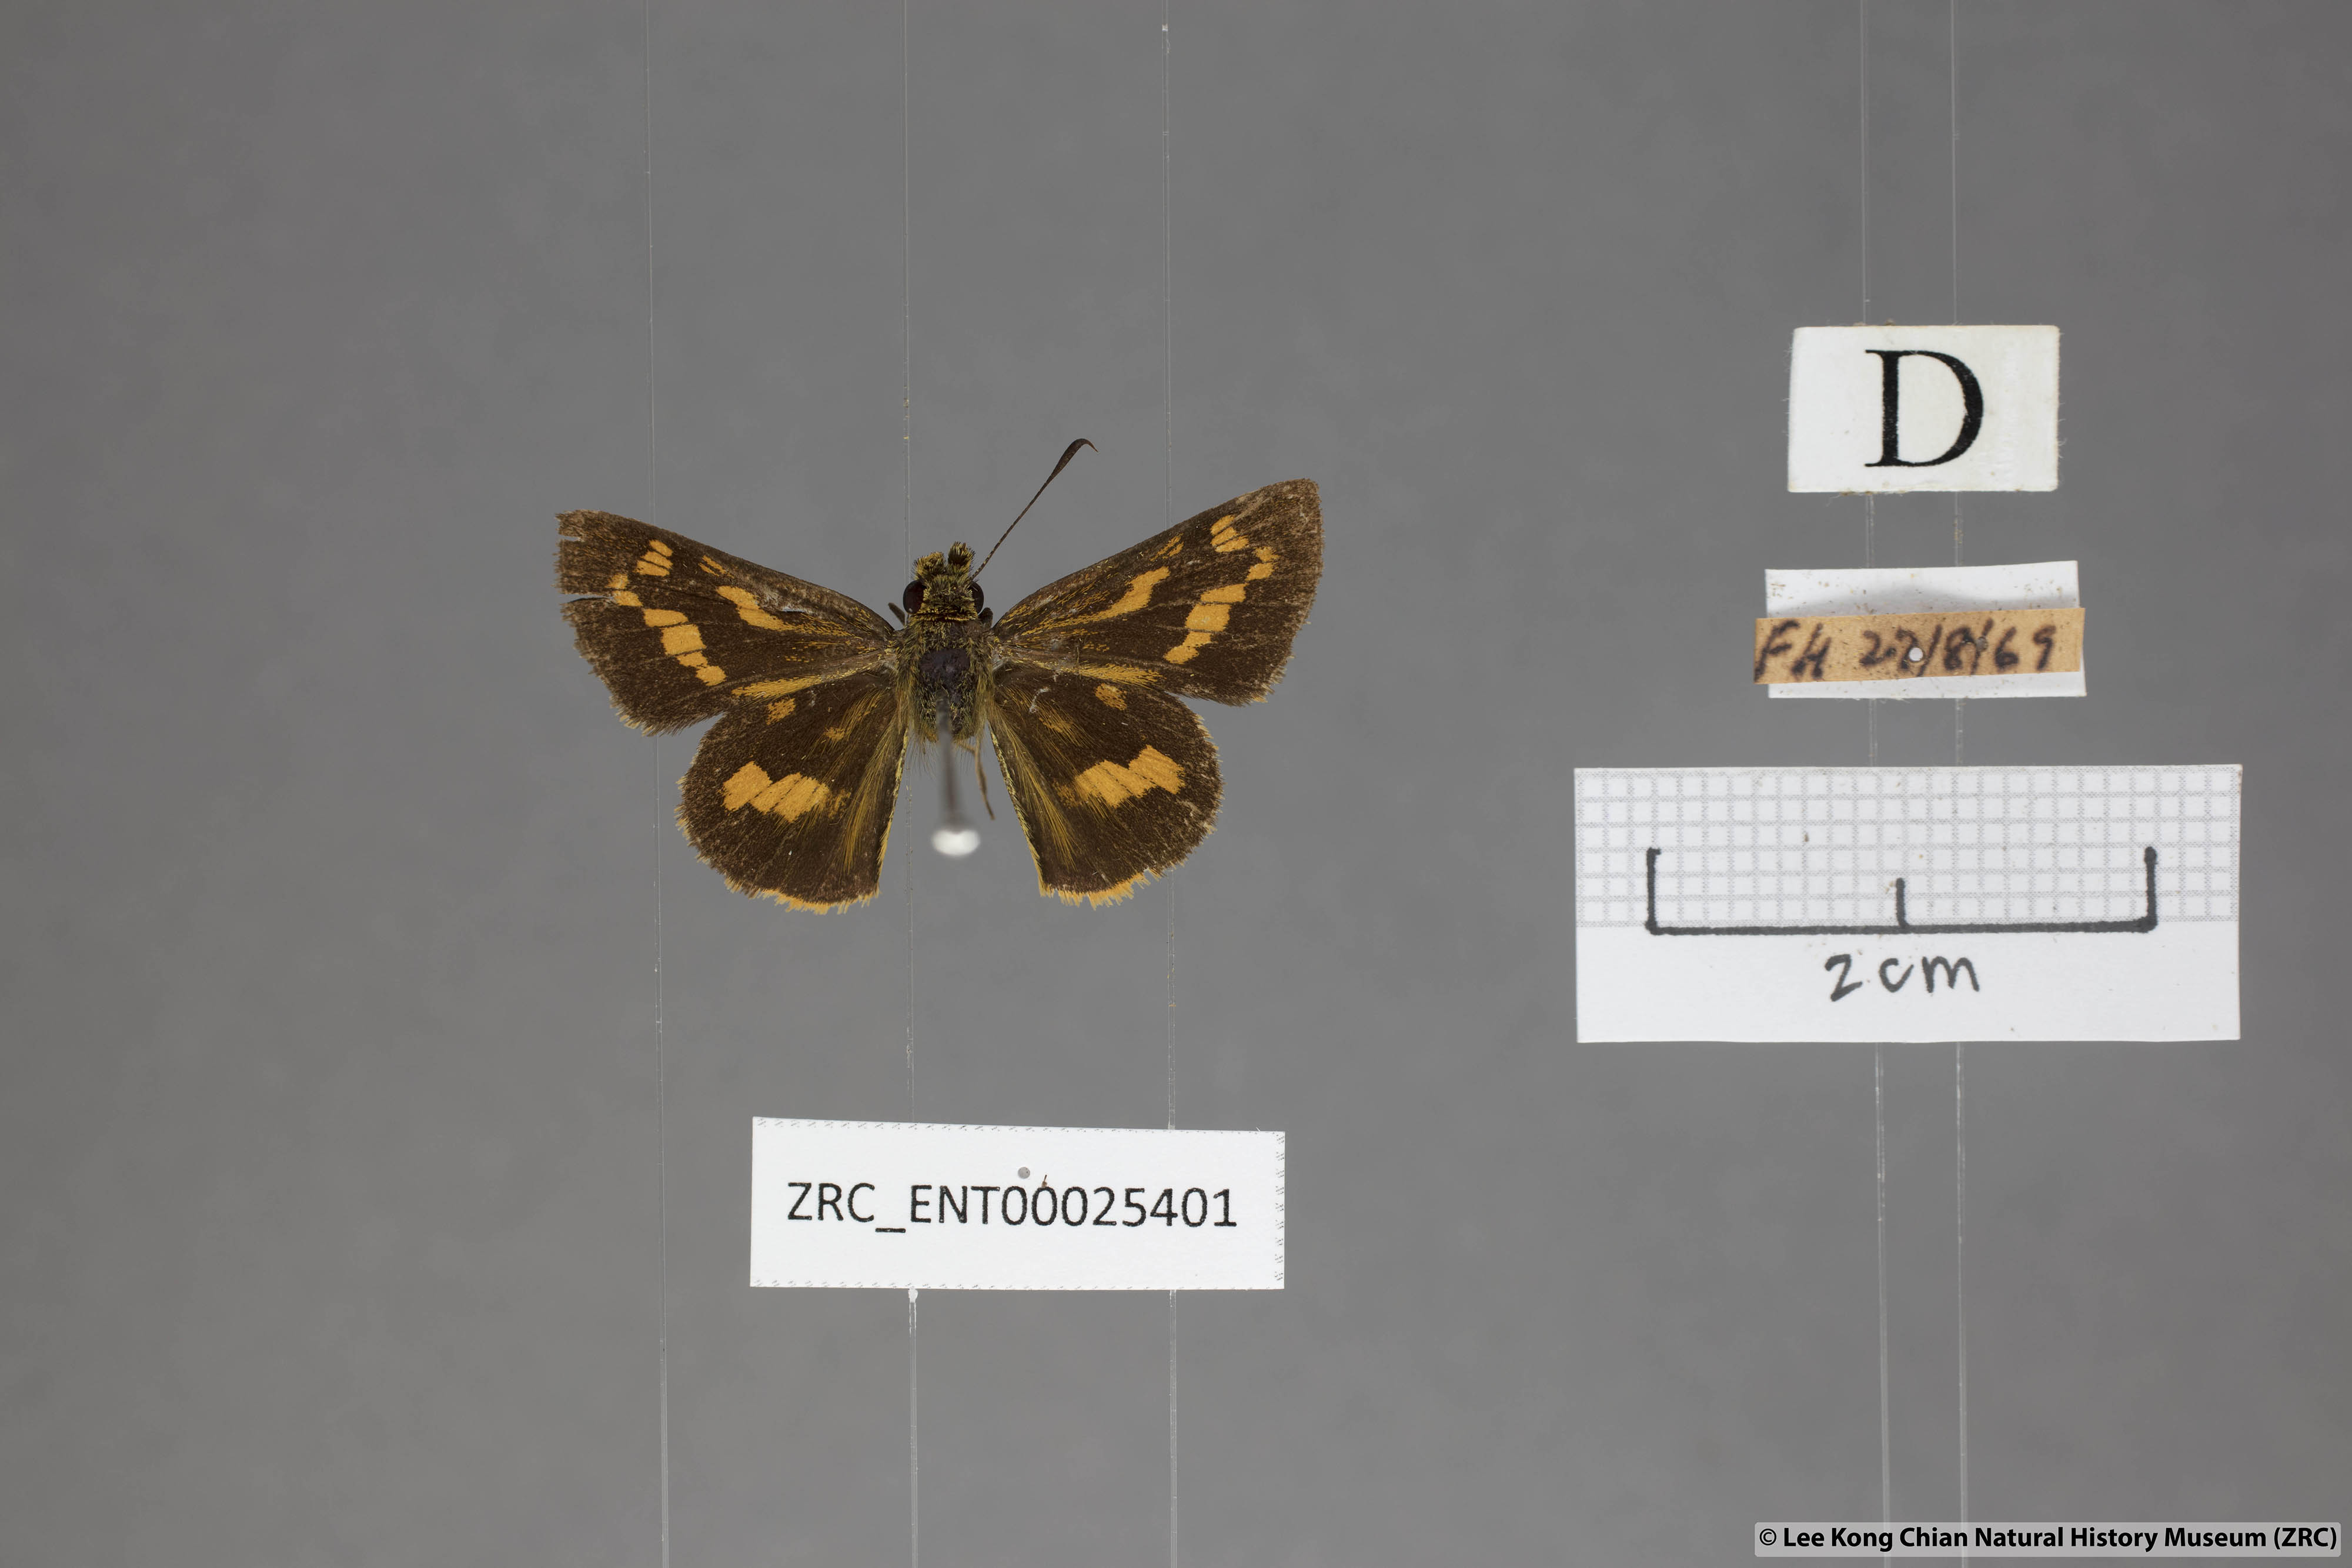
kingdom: Animalia
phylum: Arthropoda
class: Insecta
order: Lepidoptera
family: Hesperiidae
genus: Potanthus
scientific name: Potanthus lydia
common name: Lydia dart
